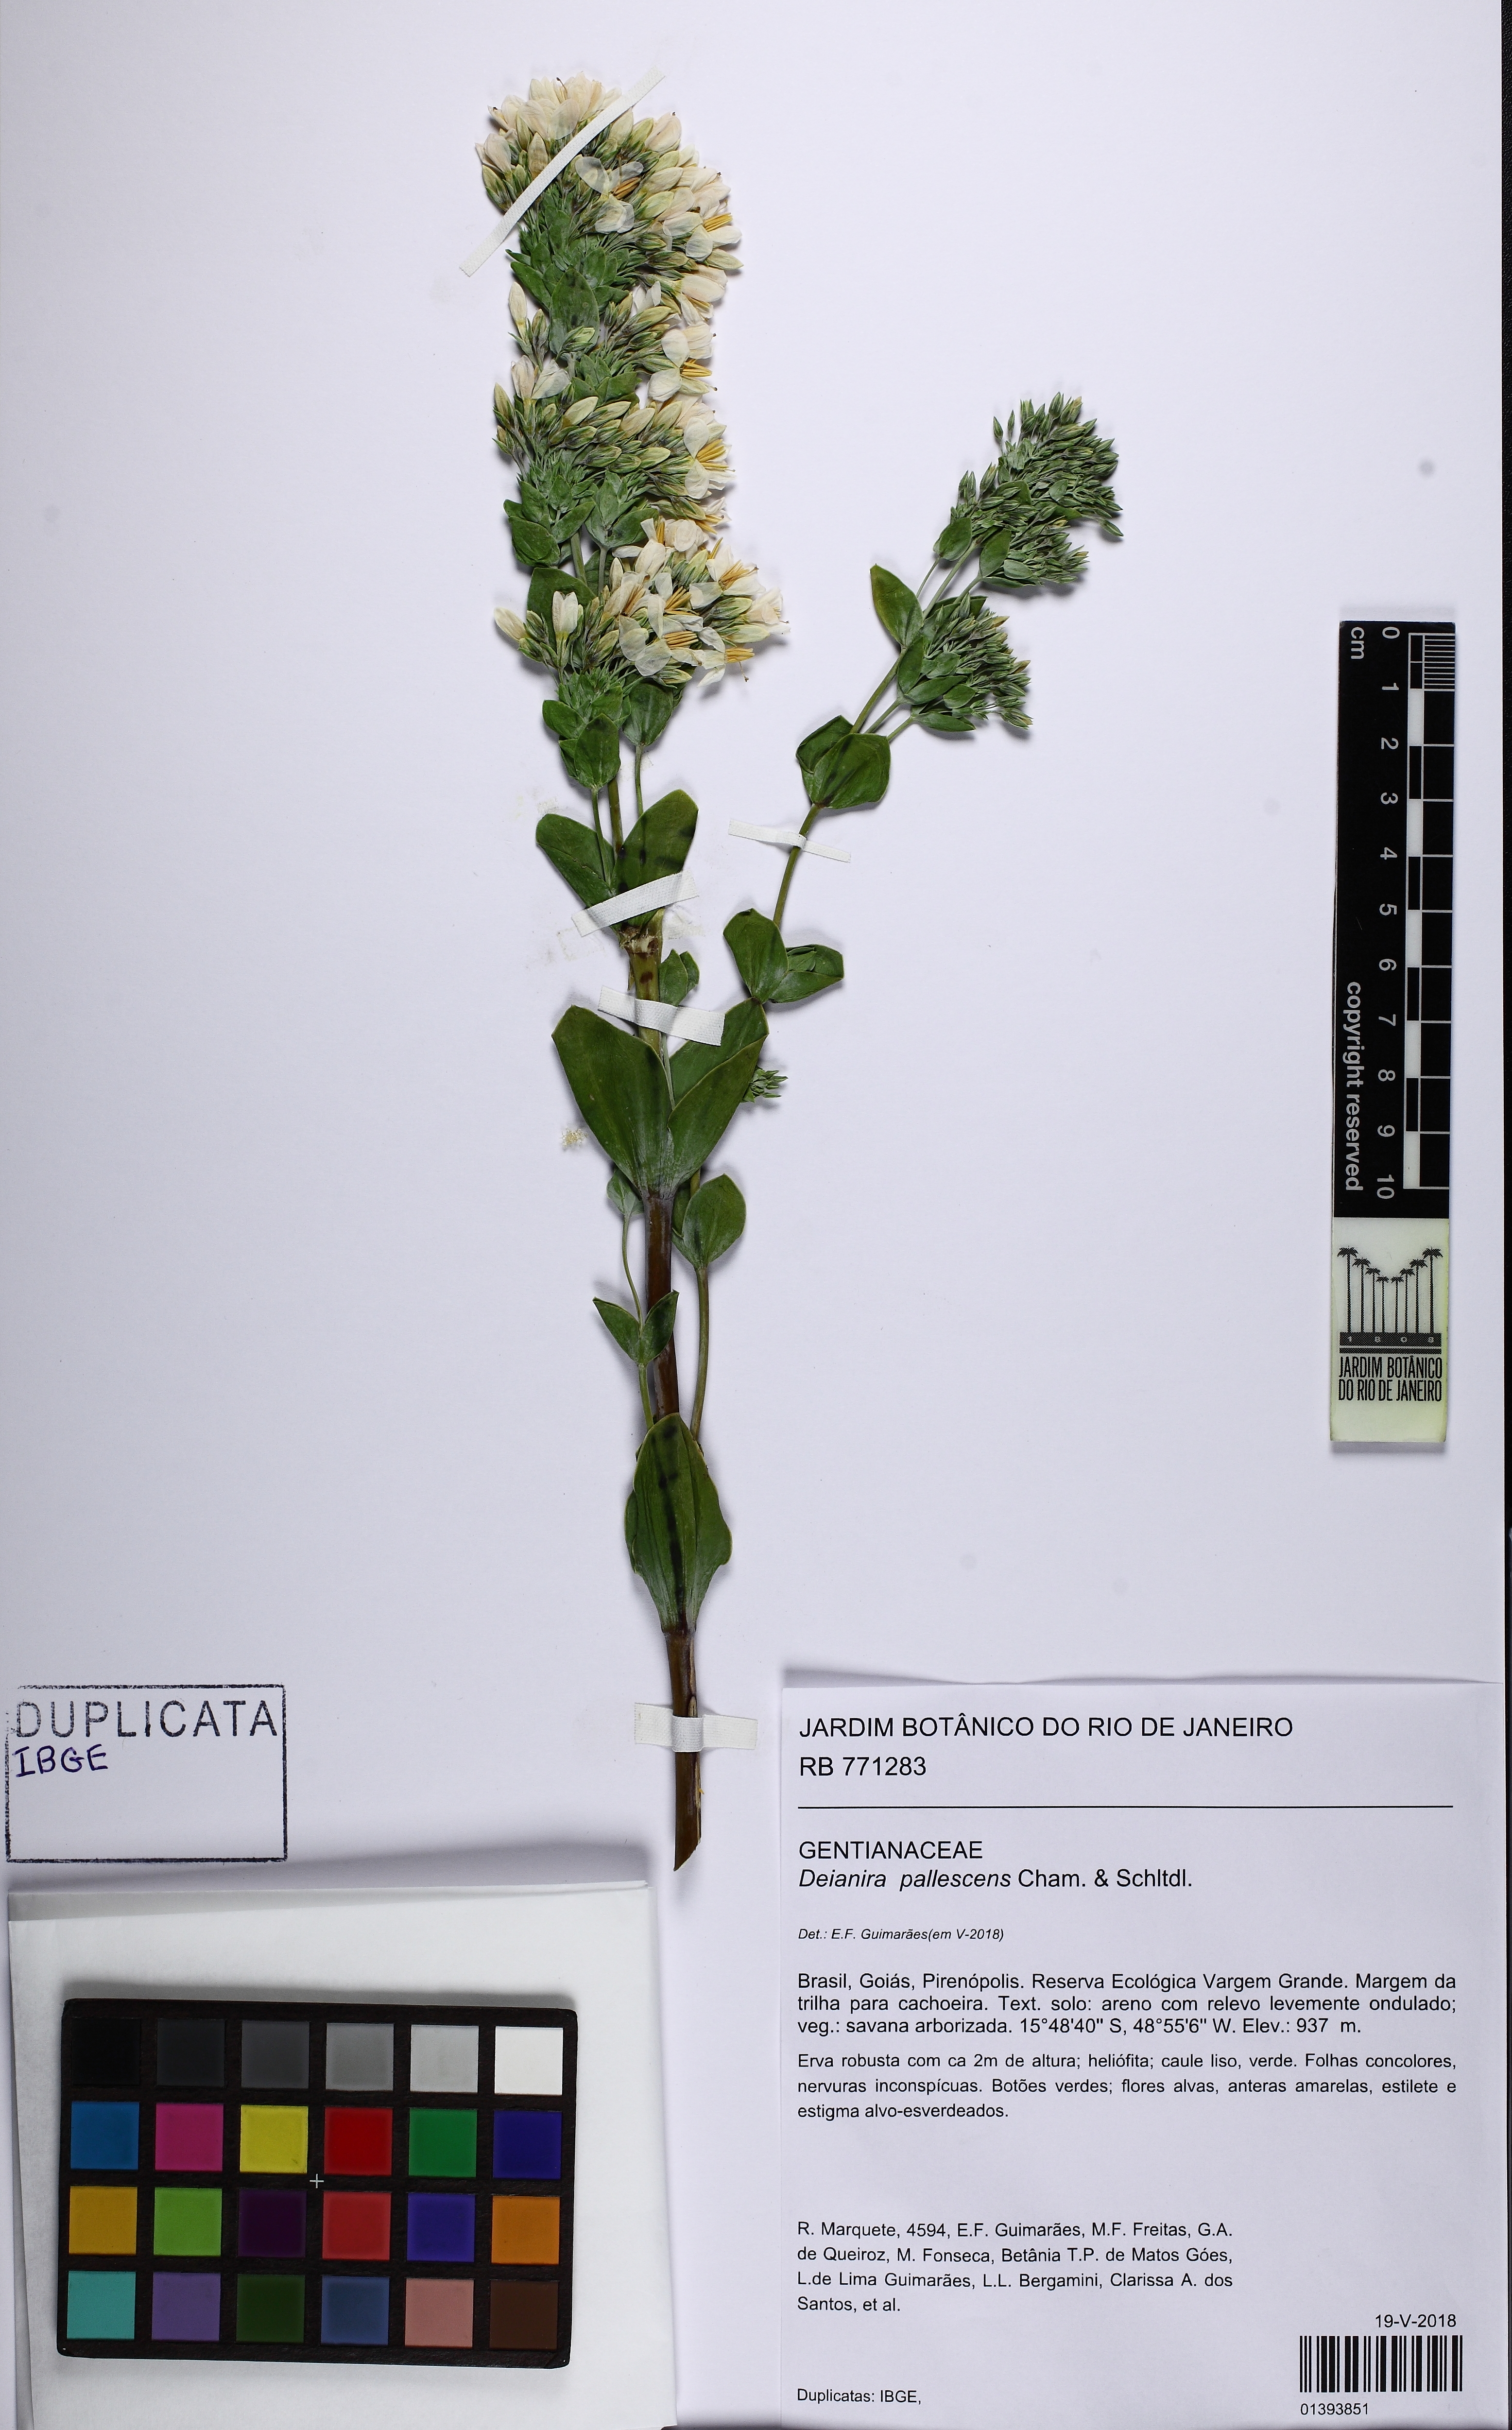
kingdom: Plantae
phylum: Tracheophyta
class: Magnoliopsida
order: Gentianales
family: Gentianaceae
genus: Deianira
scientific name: Deianira pallescens
